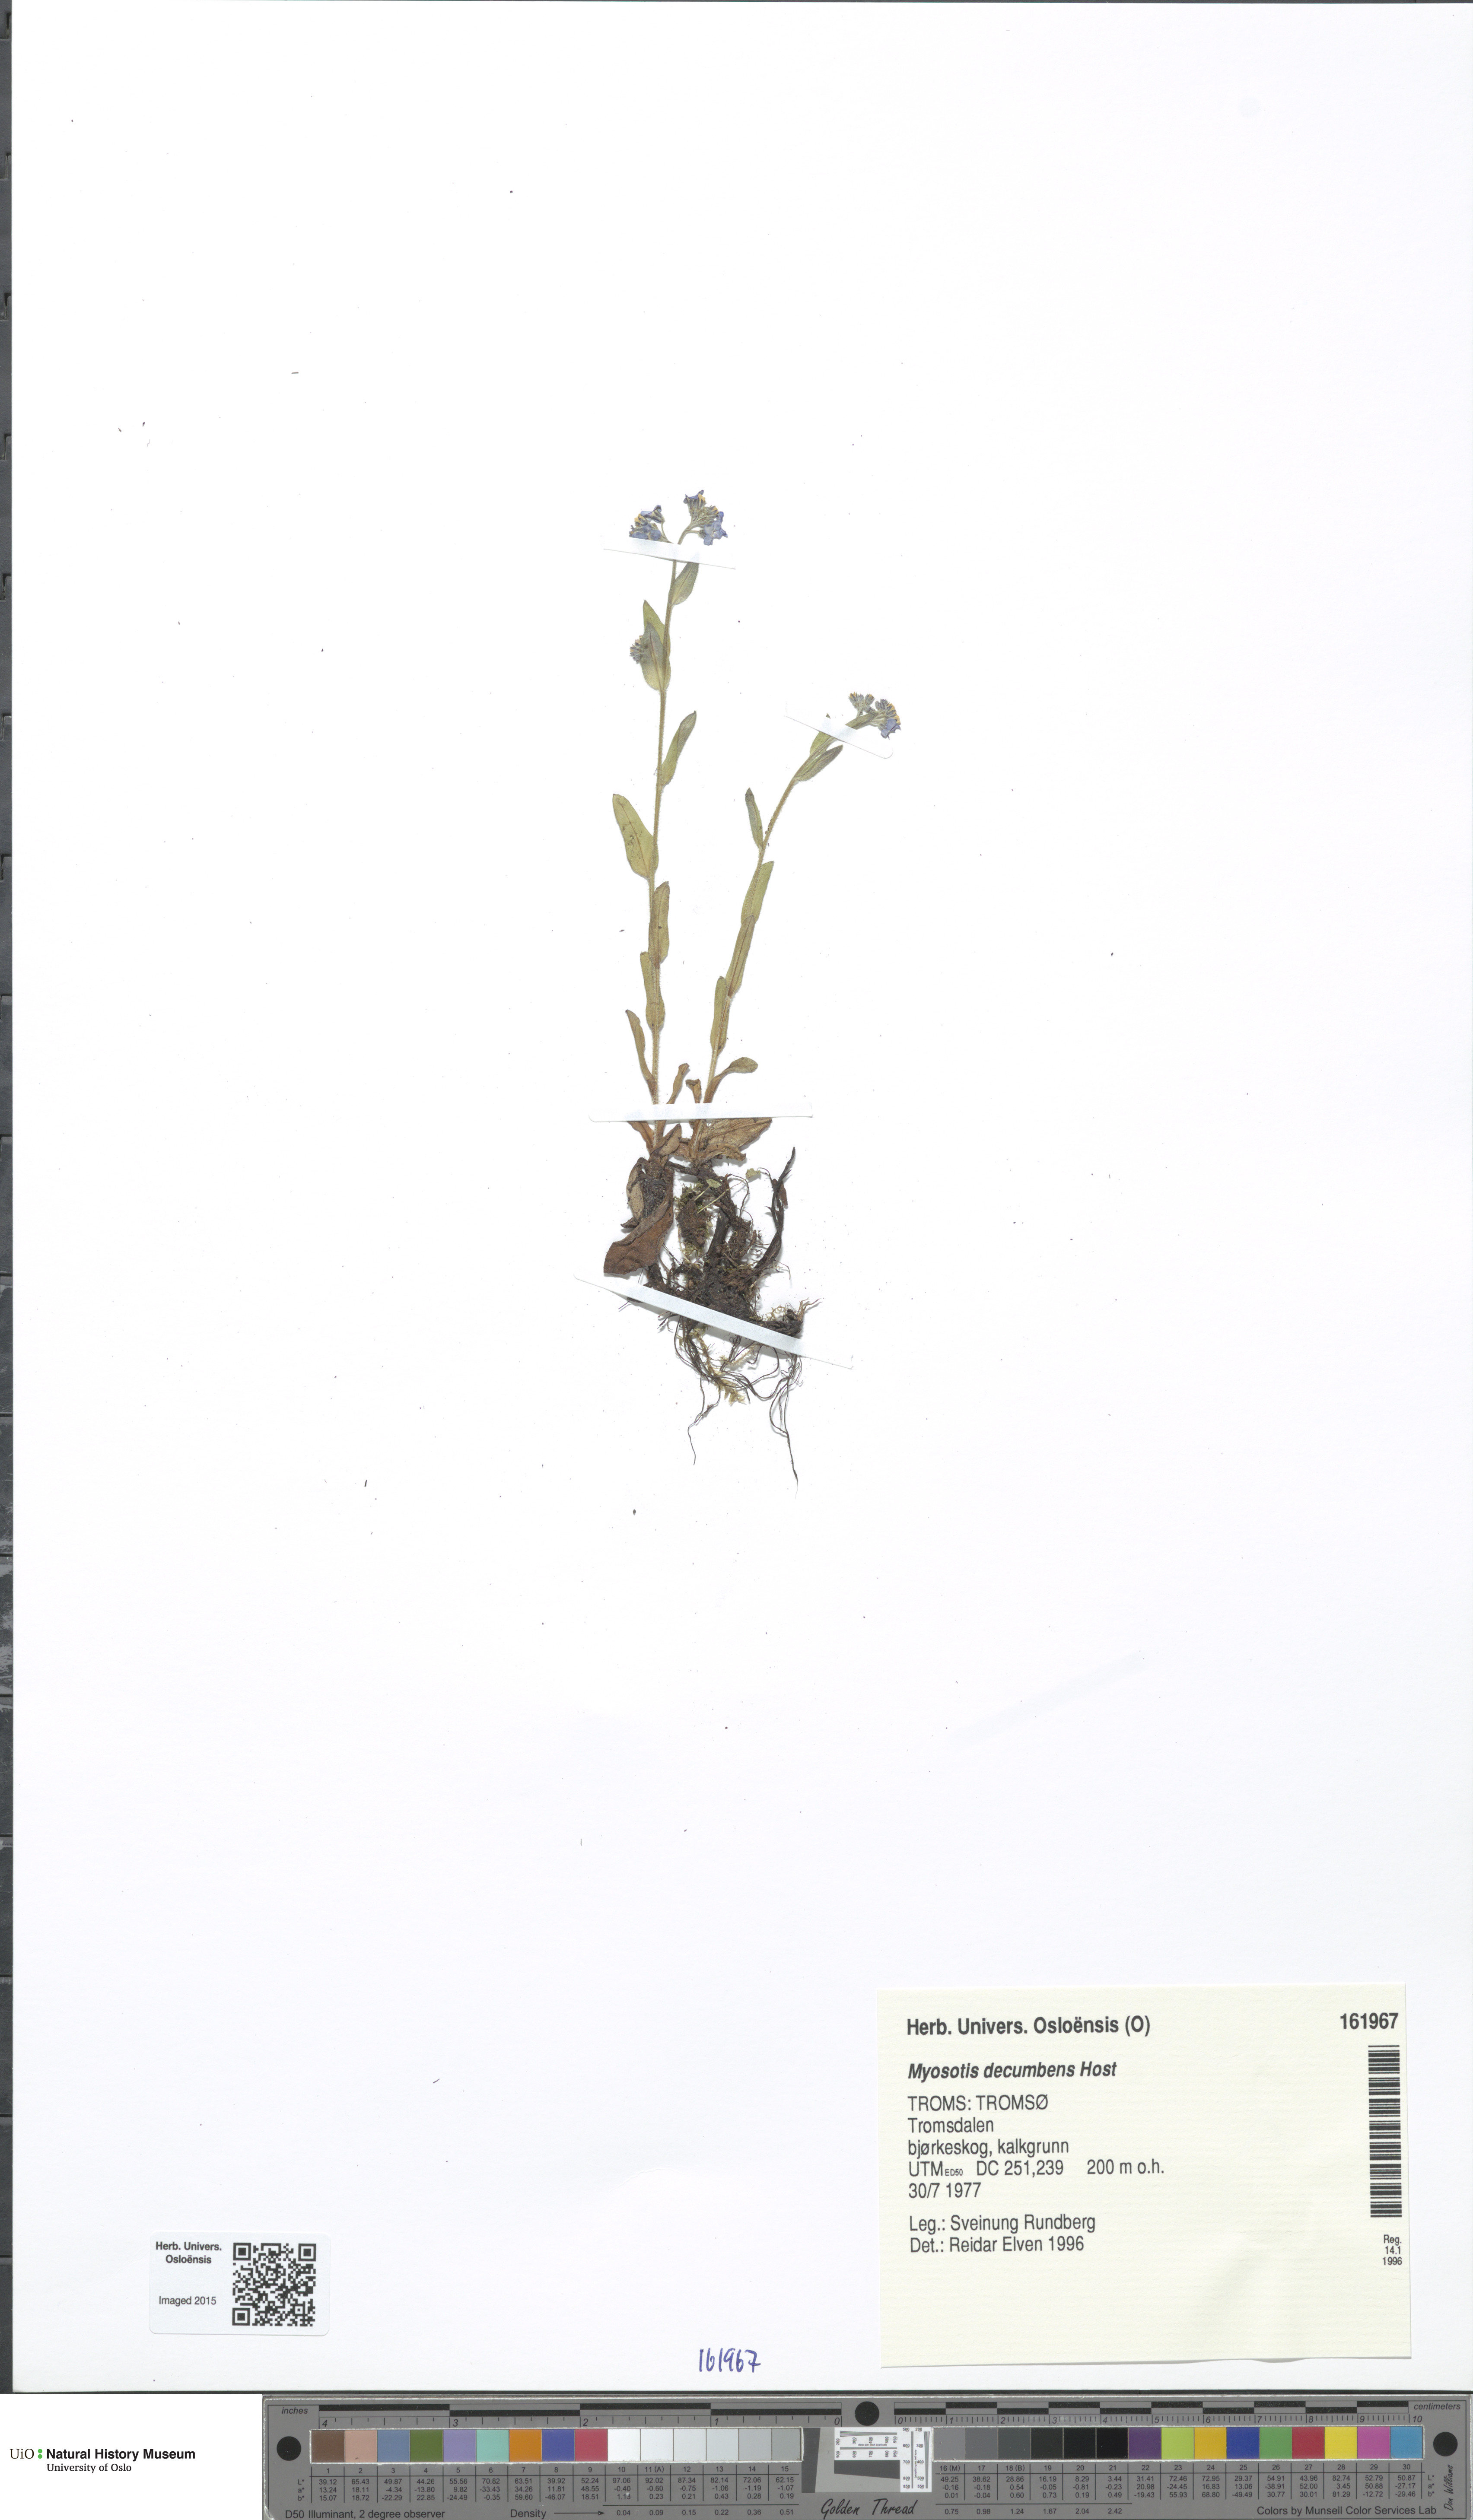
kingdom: Plantae
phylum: Tracheophyta
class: Magnoliopsida
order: Boraginales
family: Boraginaceae
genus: Myosotis
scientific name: Myosotis decumbens
